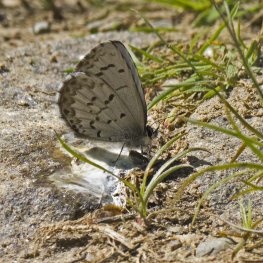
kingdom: Animalia
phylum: Arthropoda
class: Insecta
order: Lepidoptera
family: Lycaenidae
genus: Celastrina
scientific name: Celastrina lucia
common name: Northern Spring Azure
